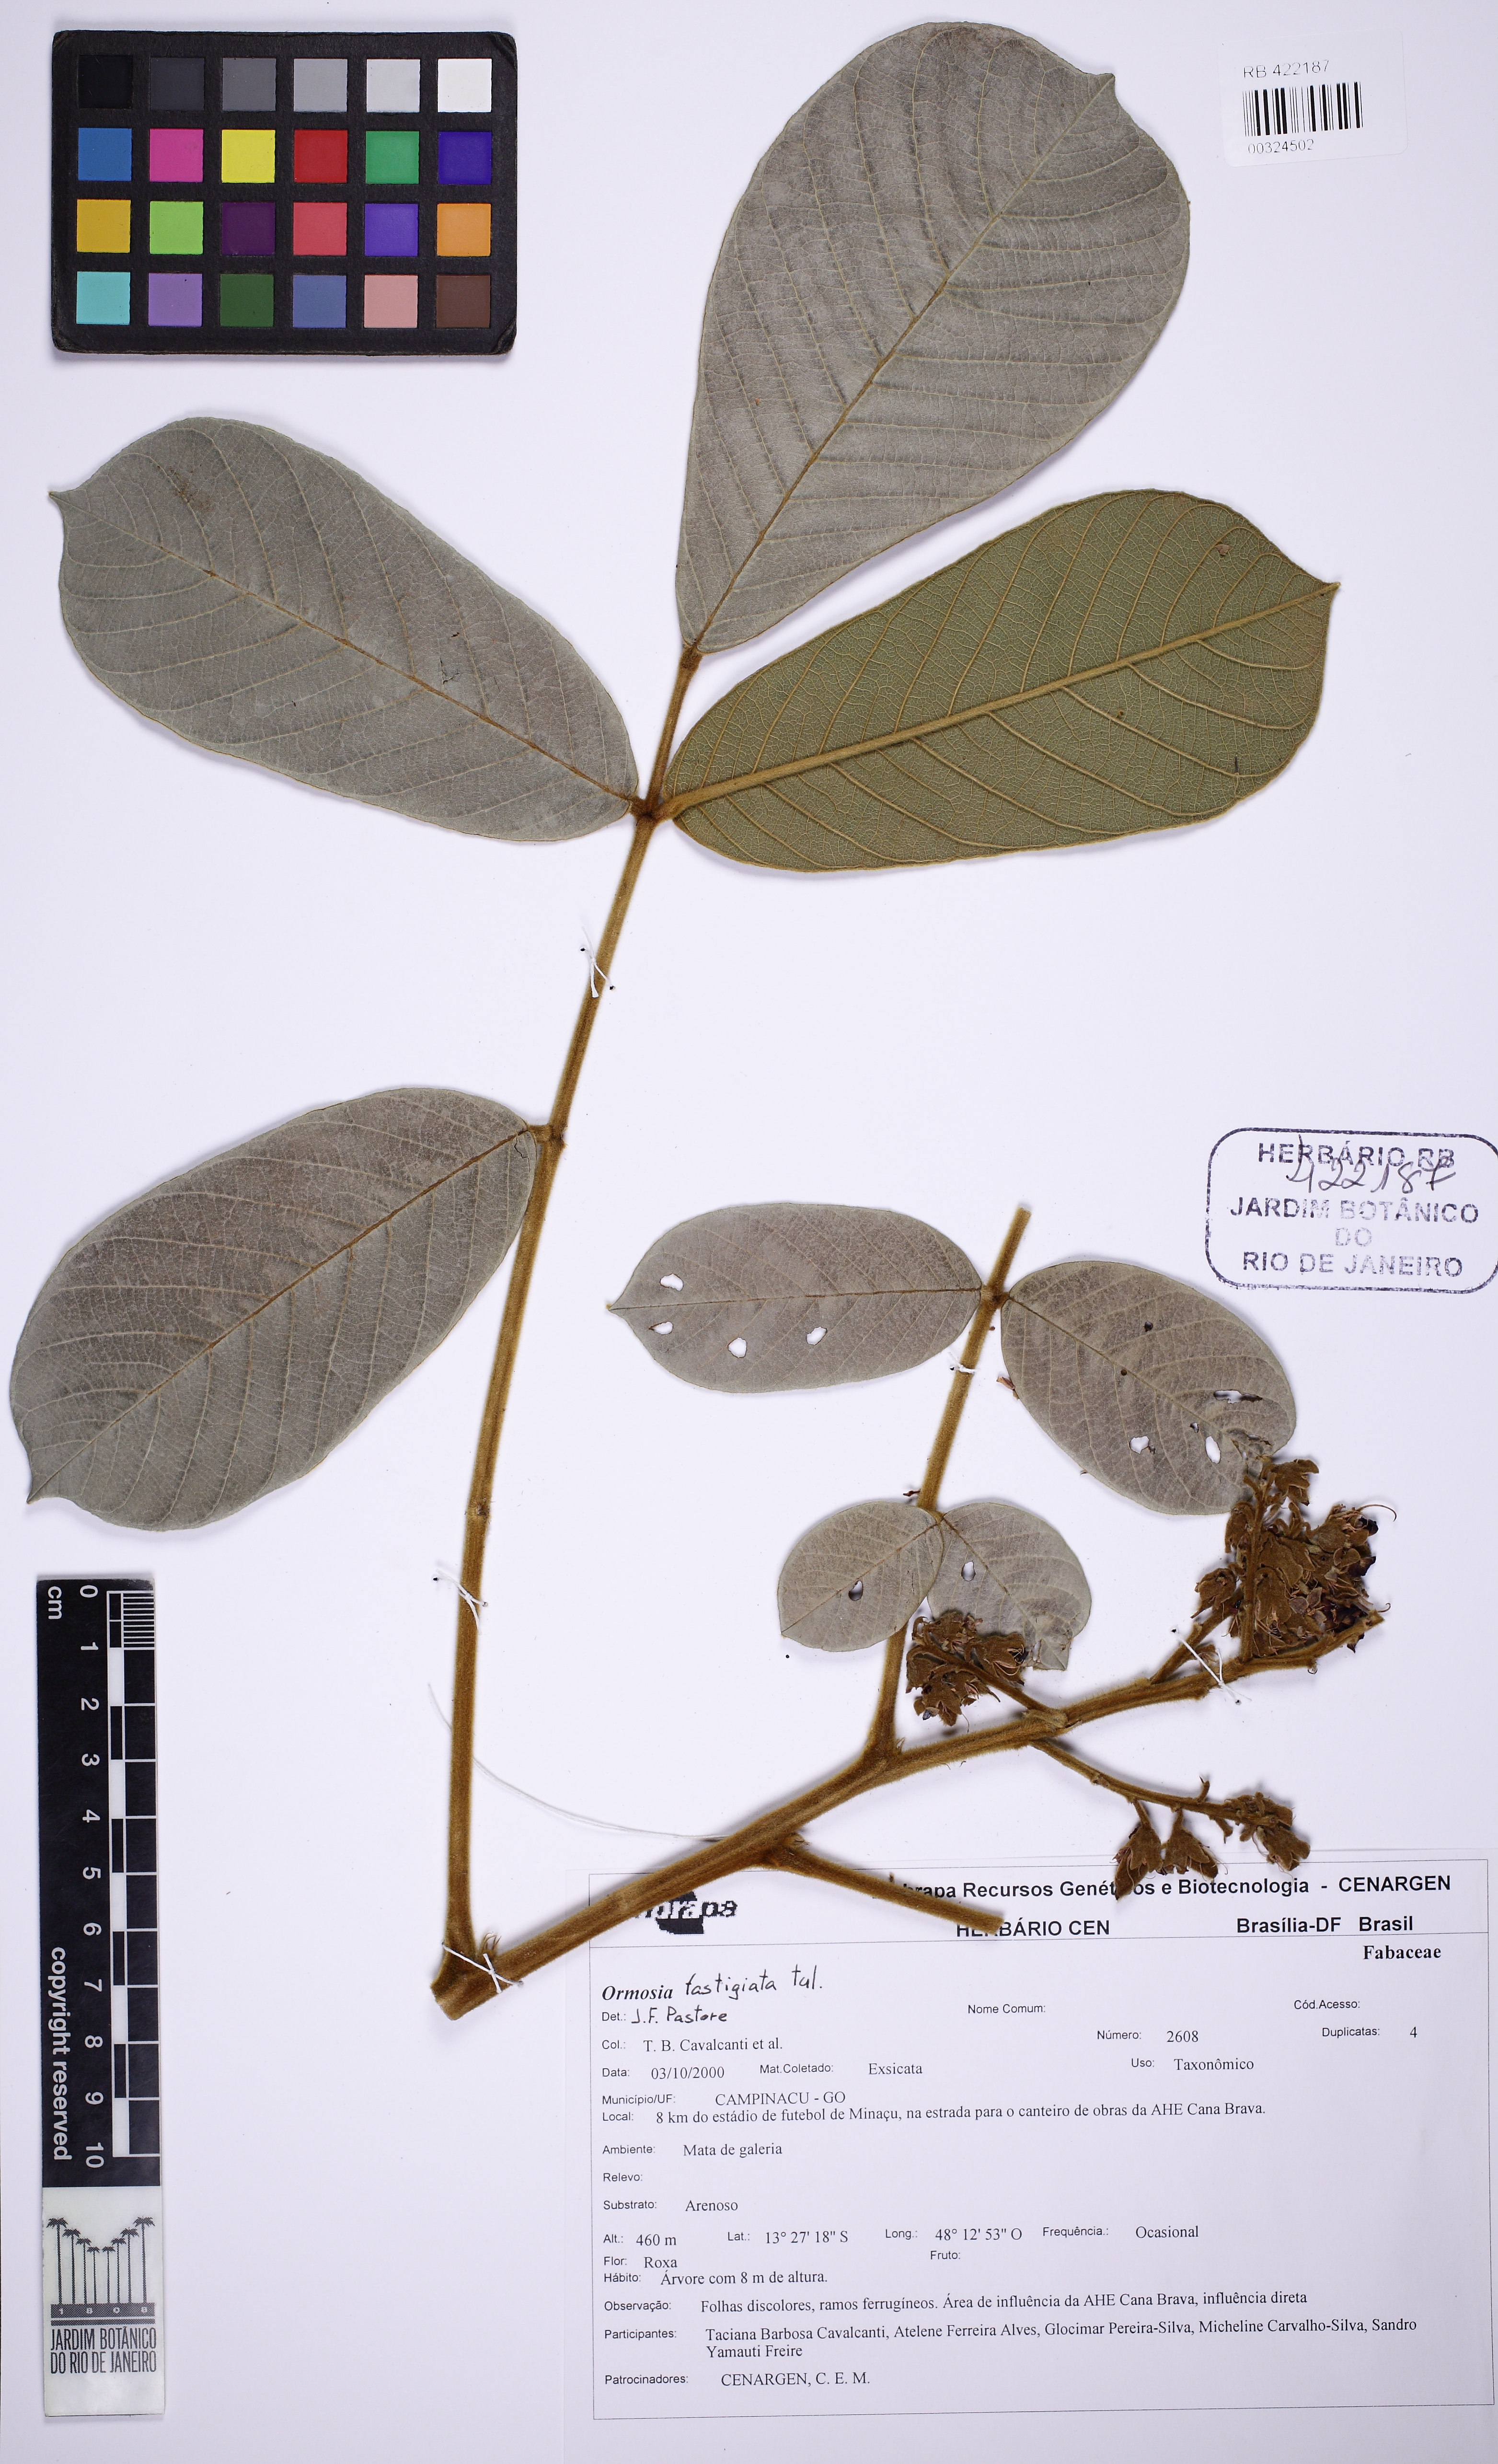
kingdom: Plantae
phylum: Tracheophyta
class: Magnoliopsida
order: Fabales
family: Fabaceae
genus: Ormosia
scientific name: Ormosia fastigiata
